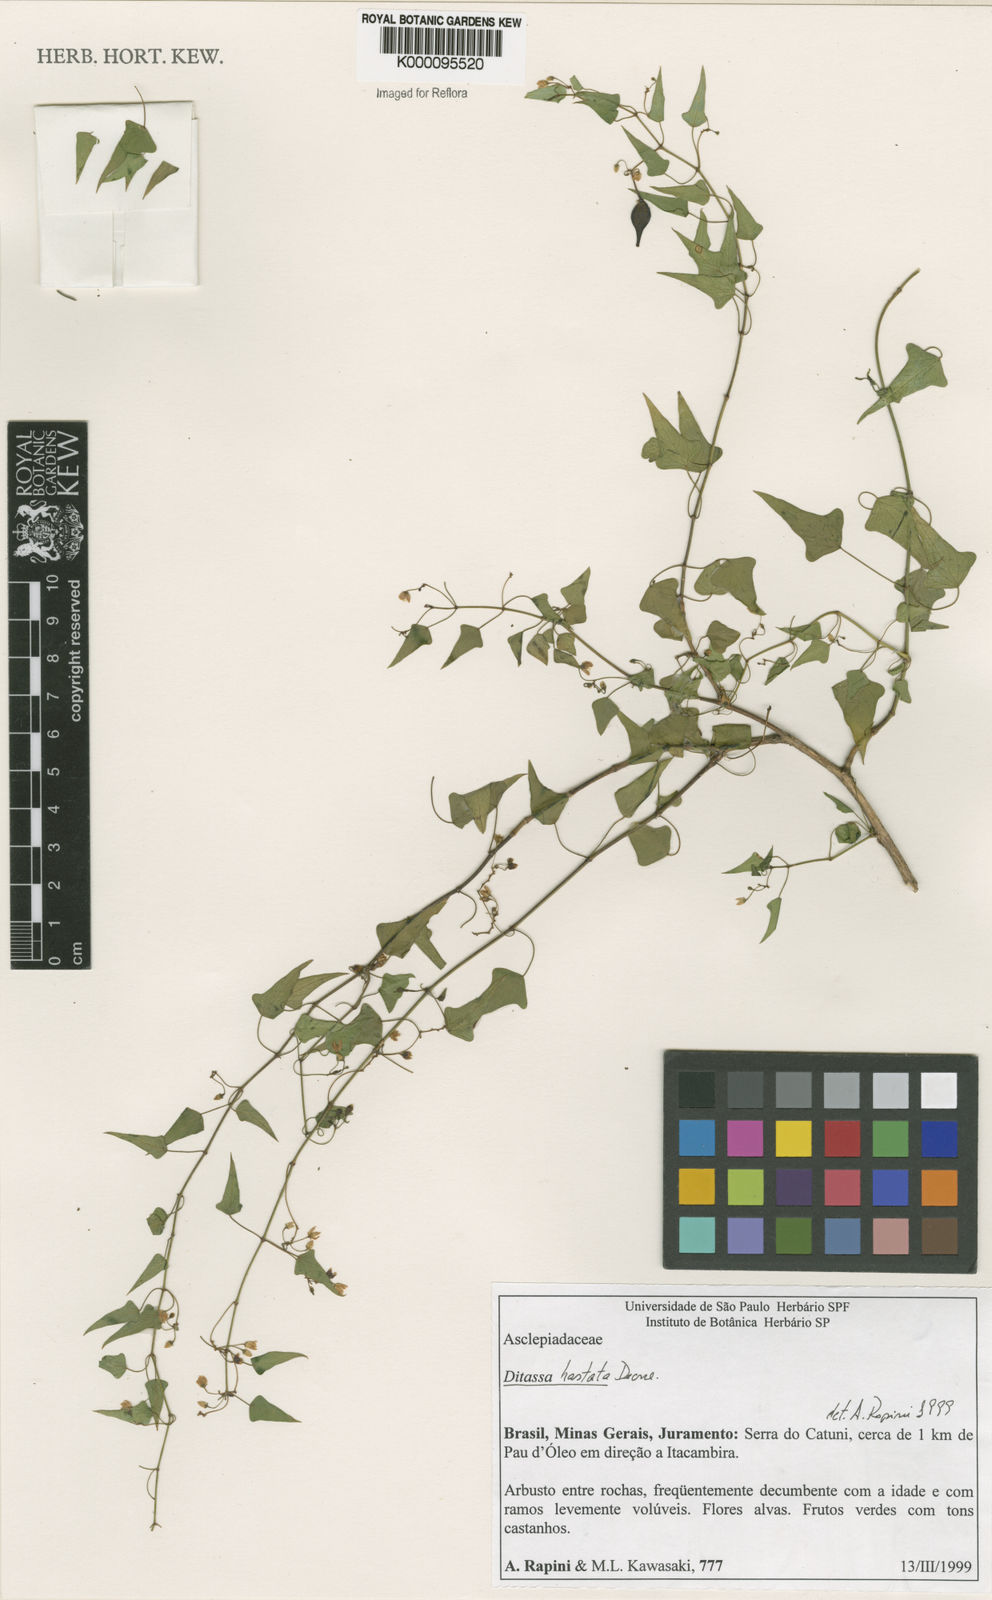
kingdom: Plantae
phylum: Tracheophyta
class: Magnoliopsida
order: Gentianales
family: Apocynaceae
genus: Ditassa
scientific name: Ditassa hastata
